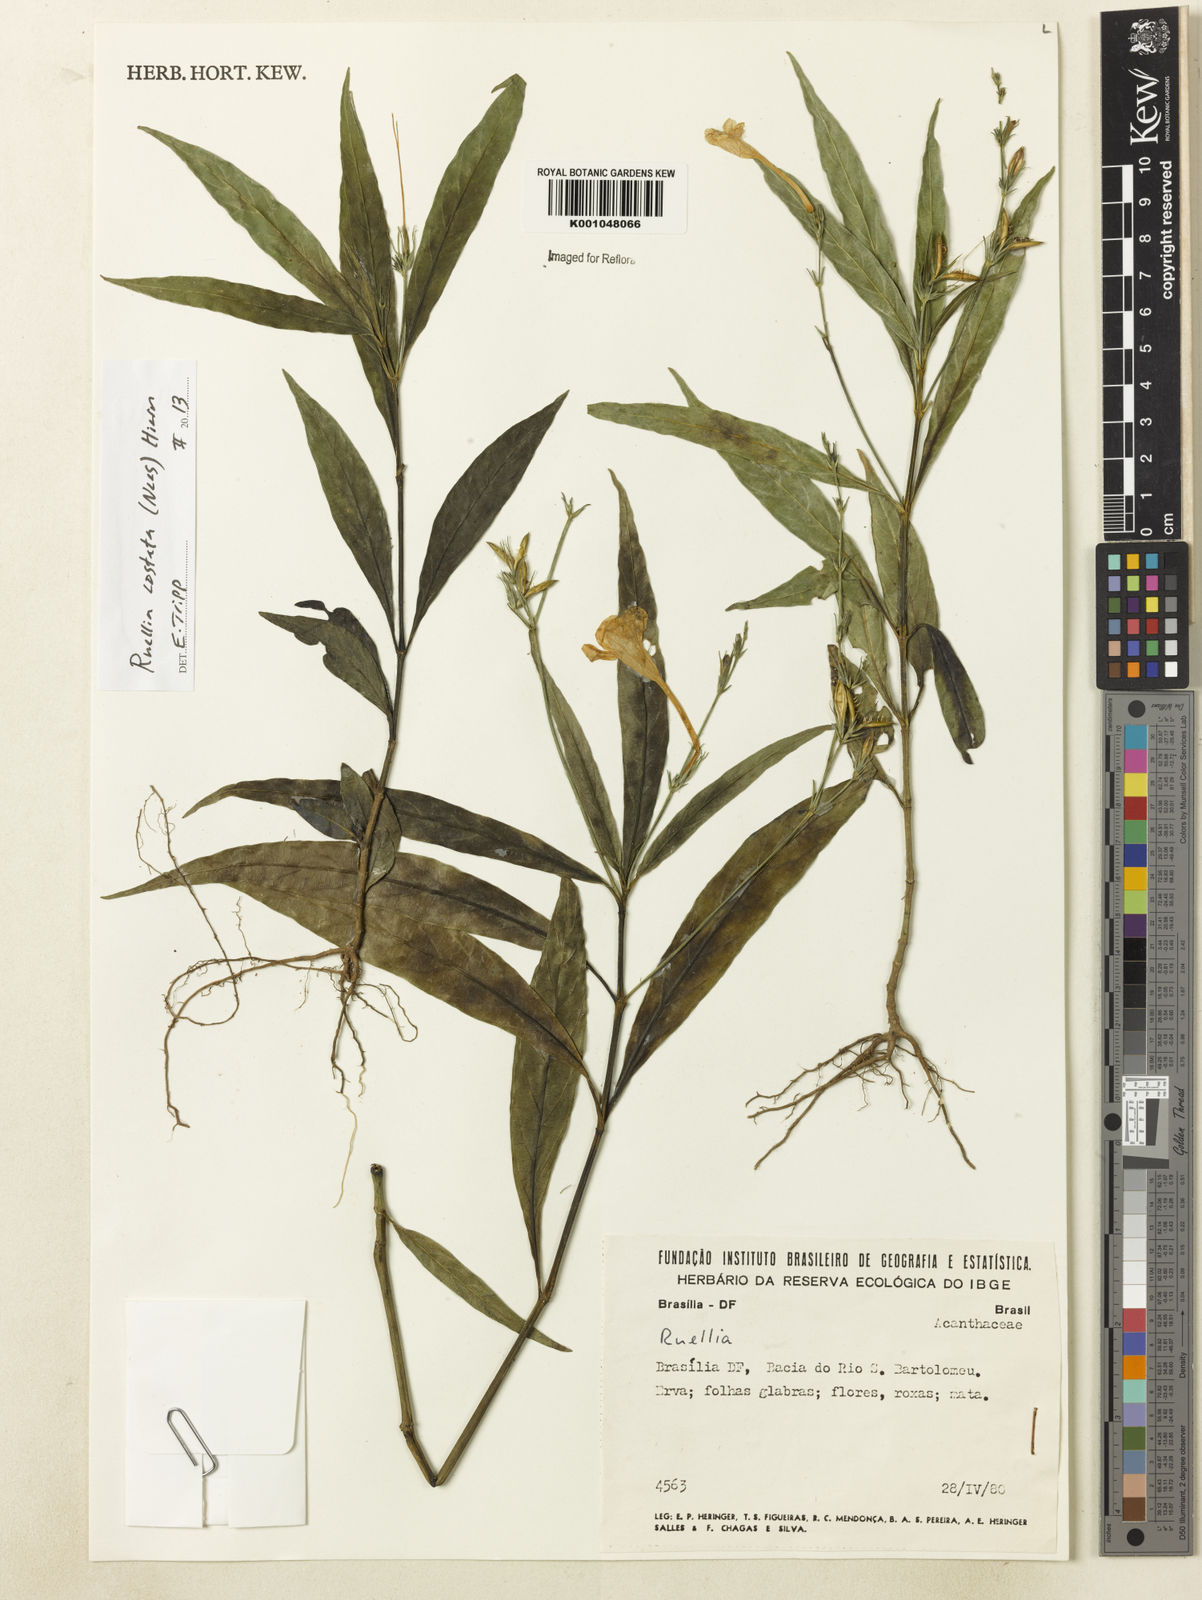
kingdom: Plantae
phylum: Tracheophyta
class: Magnoliopsida
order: Lamiales
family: Acanthaceae
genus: Ruellia
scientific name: Ruellia costata
